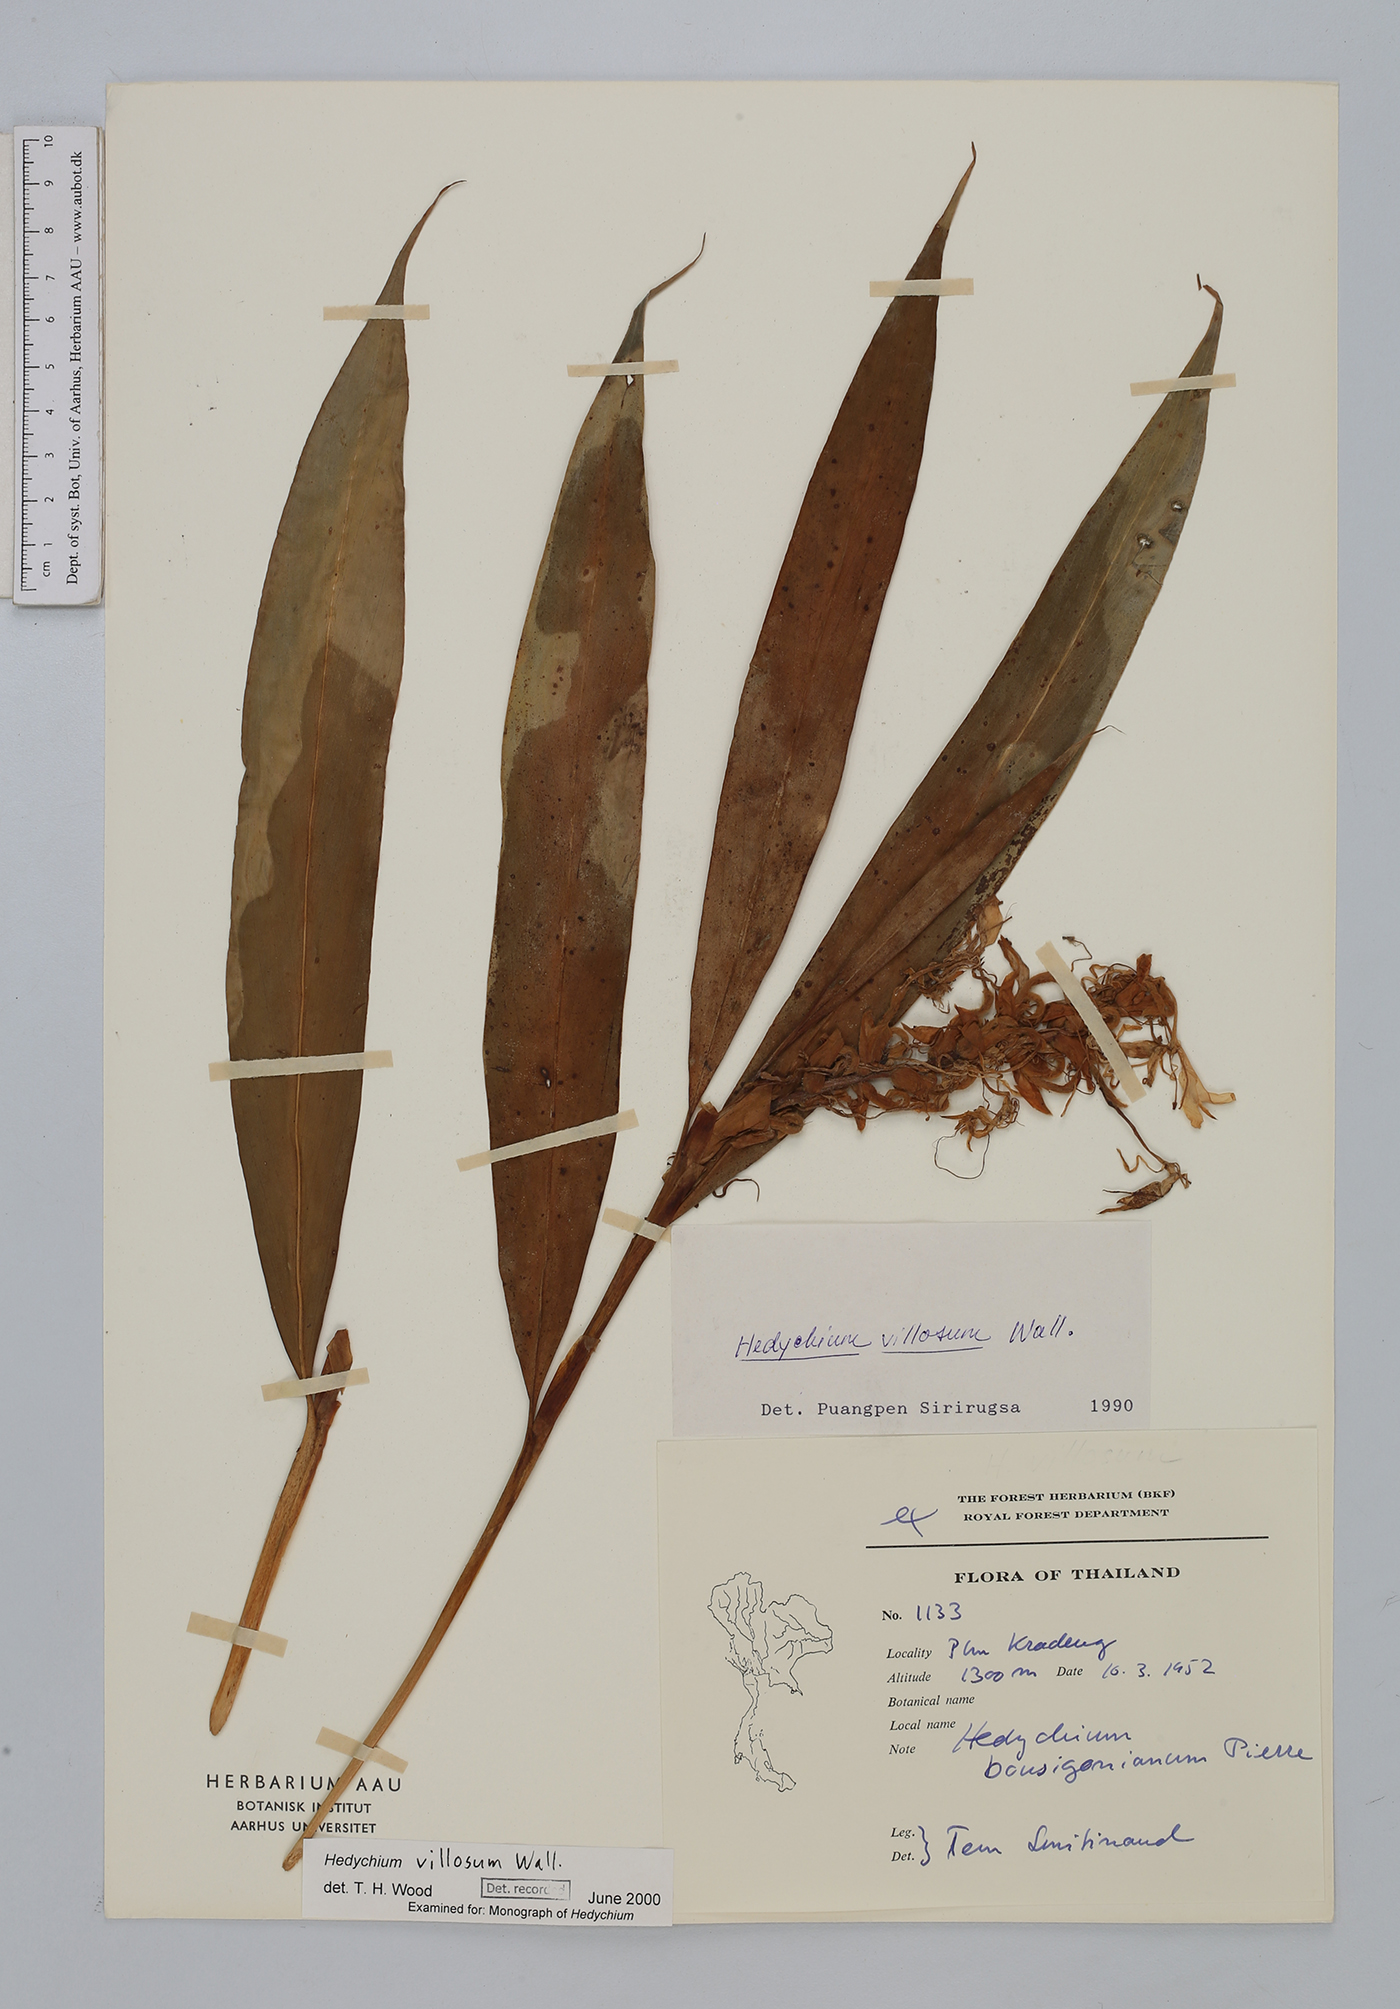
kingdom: Plantae
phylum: Tracheophyta
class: Liliopsida
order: Zingiberales
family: Zingiberaceae
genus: Hedychium
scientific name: Hedychium villosum
